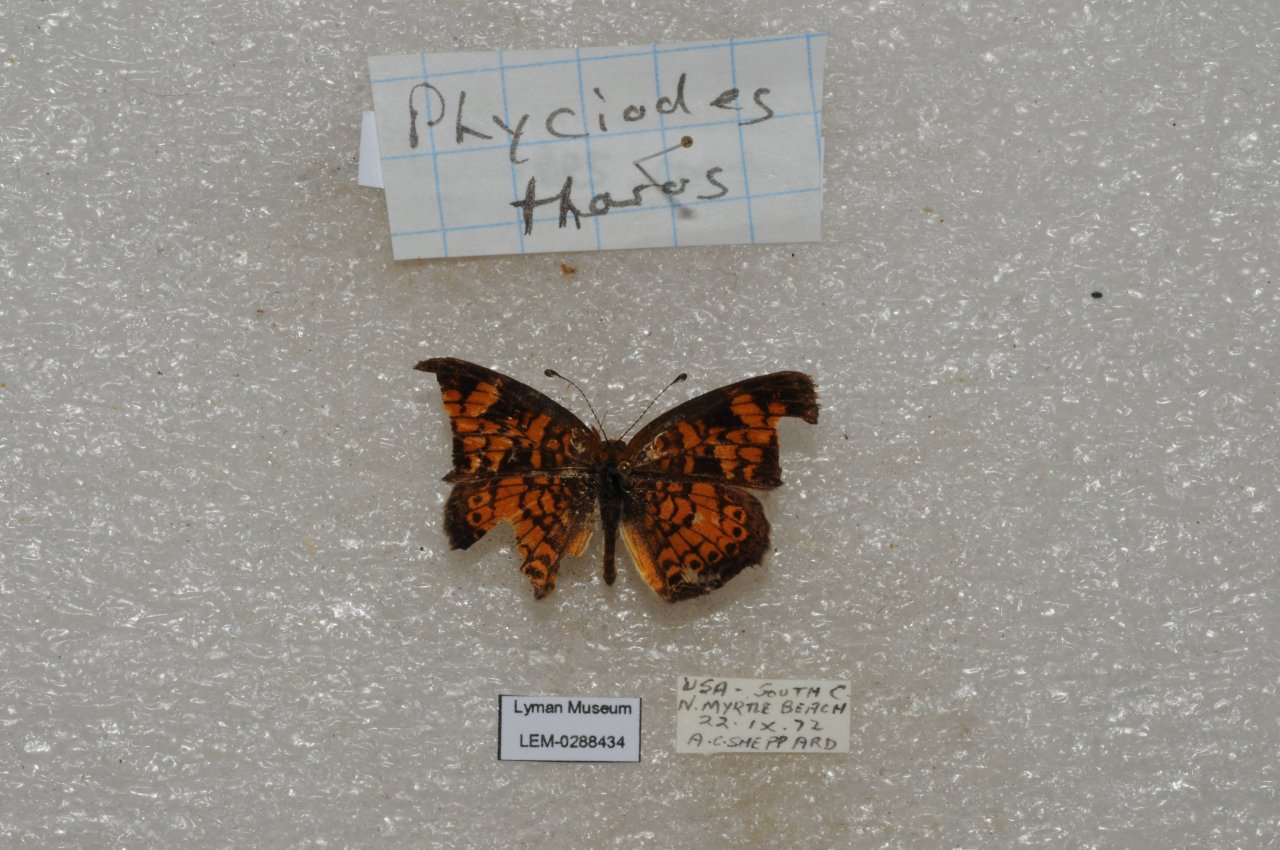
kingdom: Animalia
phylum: Arthropoda
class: Insecta
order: Lepidoptera
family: Nymphalidae
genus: Phyciodes
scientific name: Phyciodes tharos
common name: Pearl Crescent
